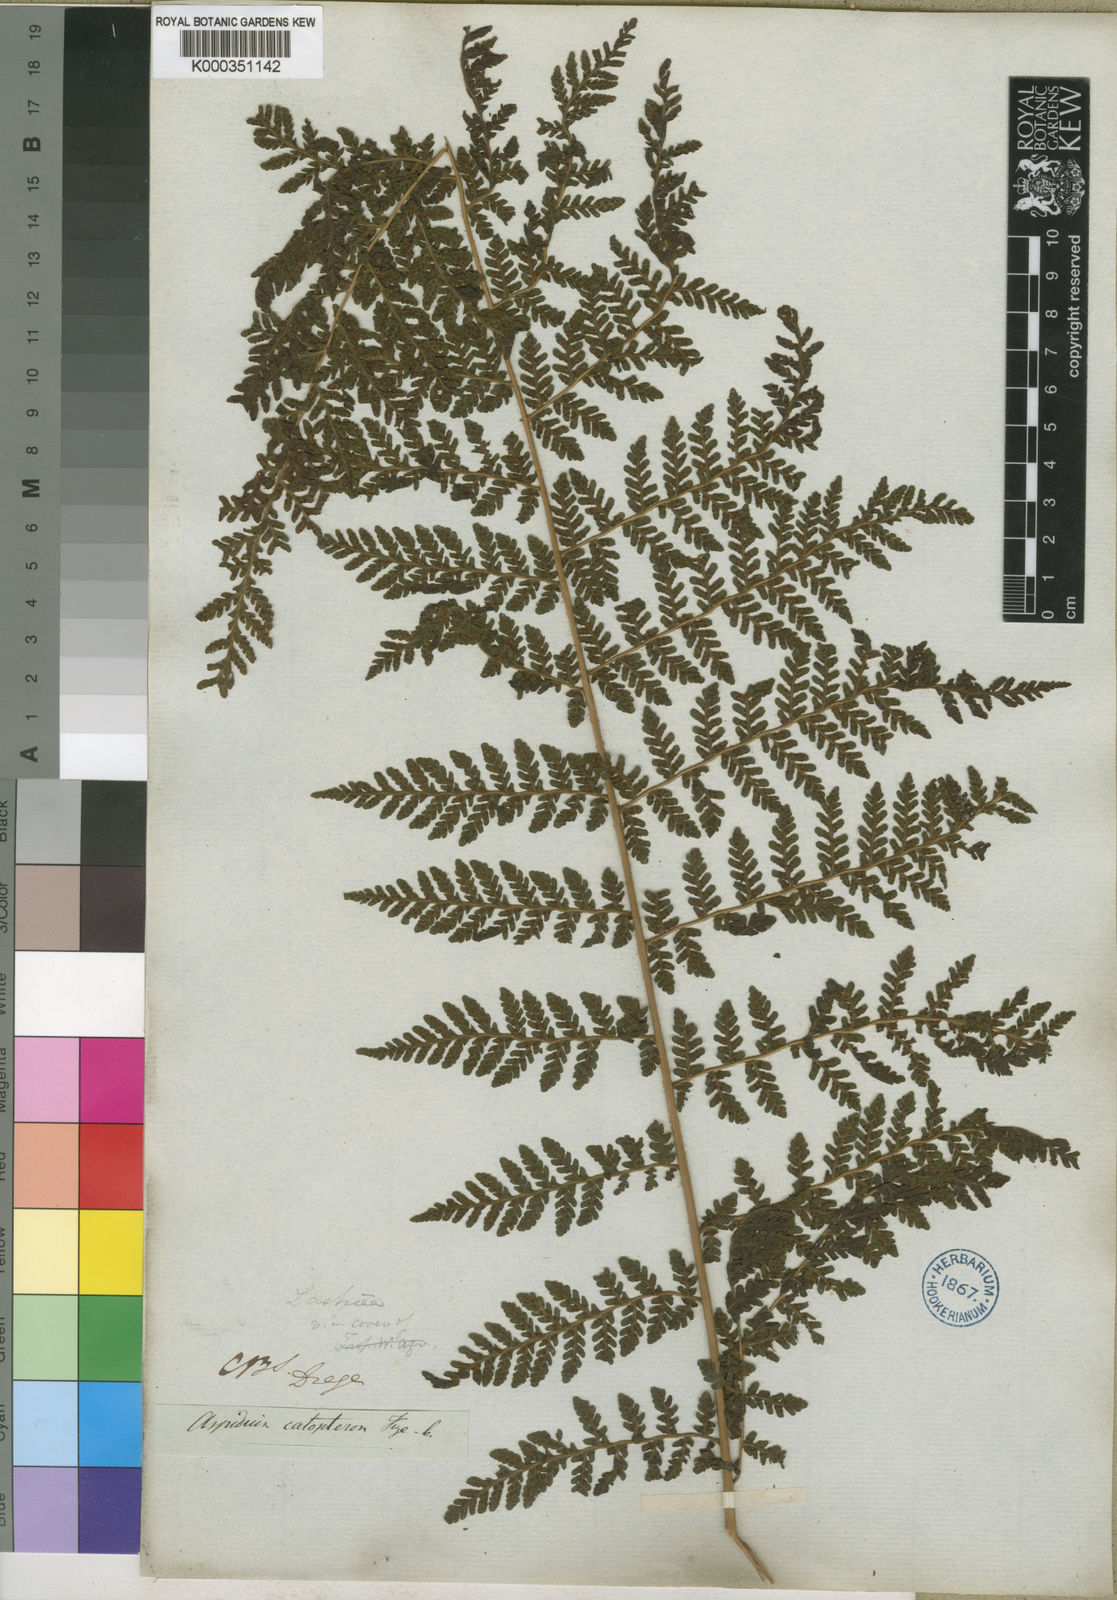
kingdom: Plantae
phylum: Tracheophyta
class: Polypodiopsida
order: Polypodiales
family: Dryopteridaceae
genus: Megalastrum
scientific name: Megalastrum lanuginosum
